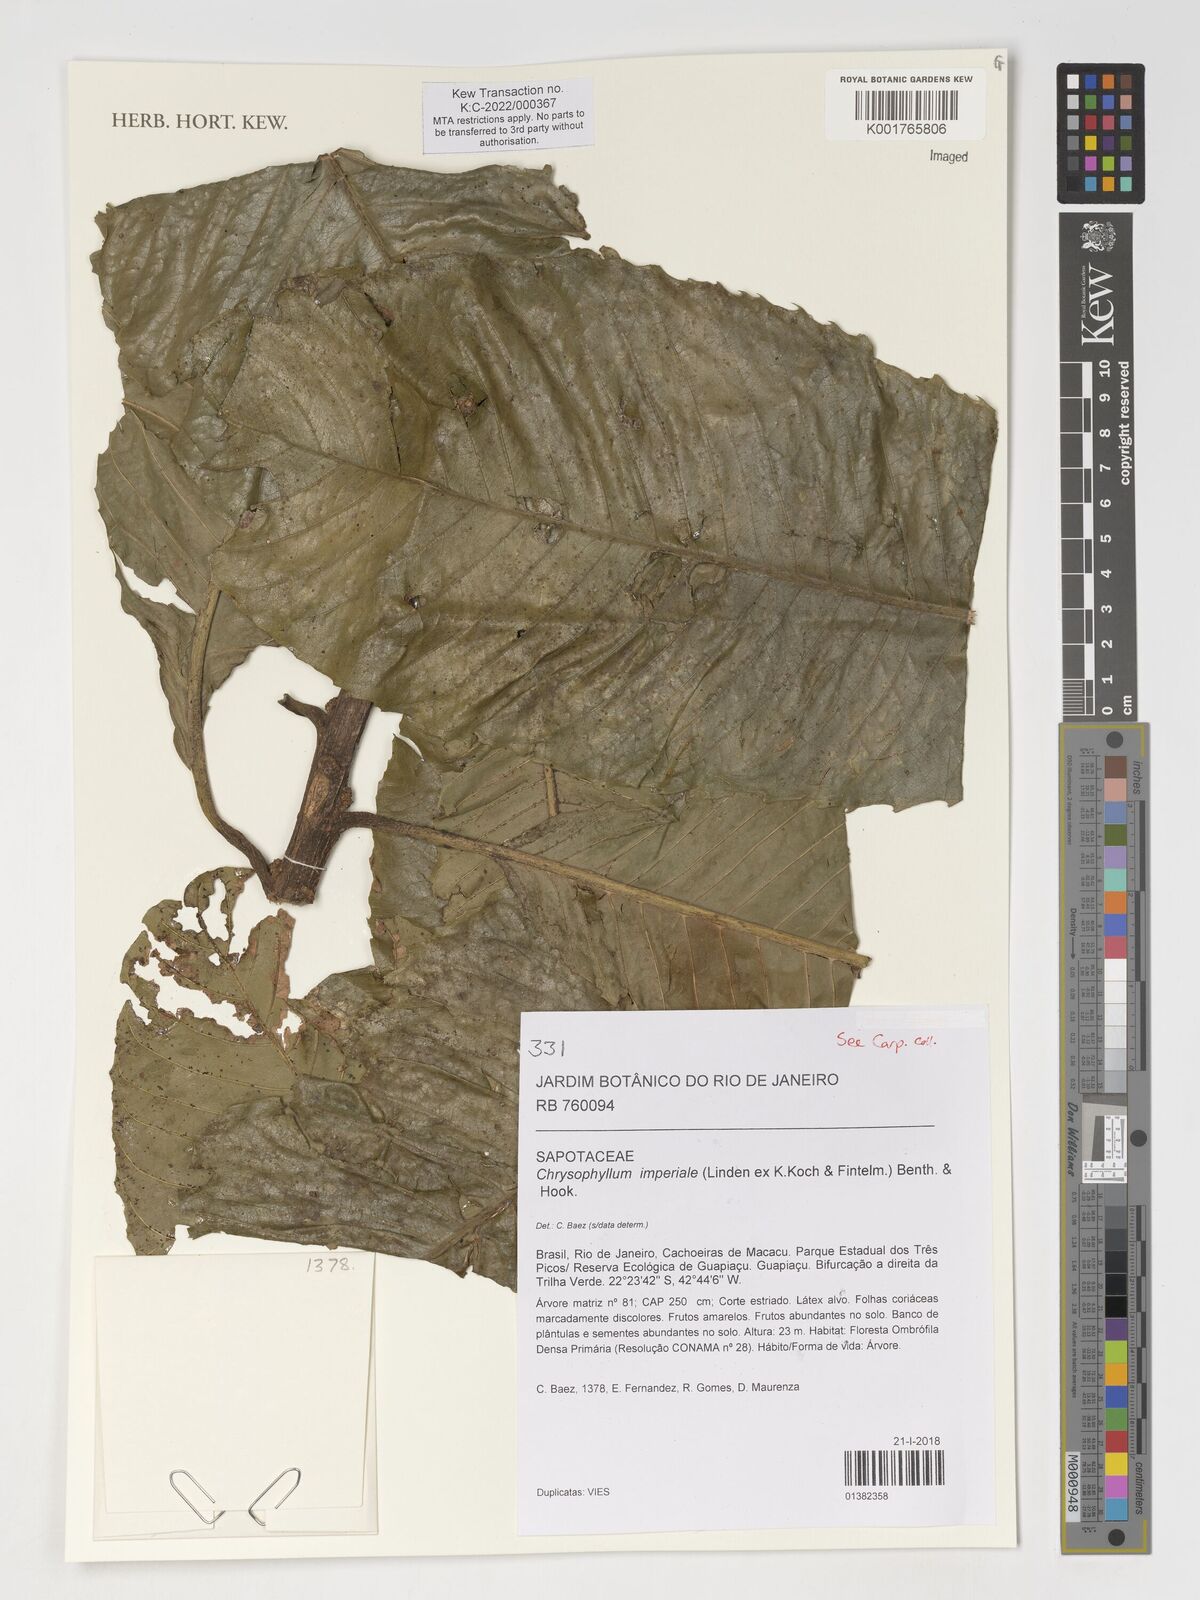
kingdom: Plantae
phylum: Tracheophyta
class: Magnoliopsida
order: Ericales
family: Sapotaceae
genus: Chrysophyllum
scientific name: Chrysophyllum imperiale
